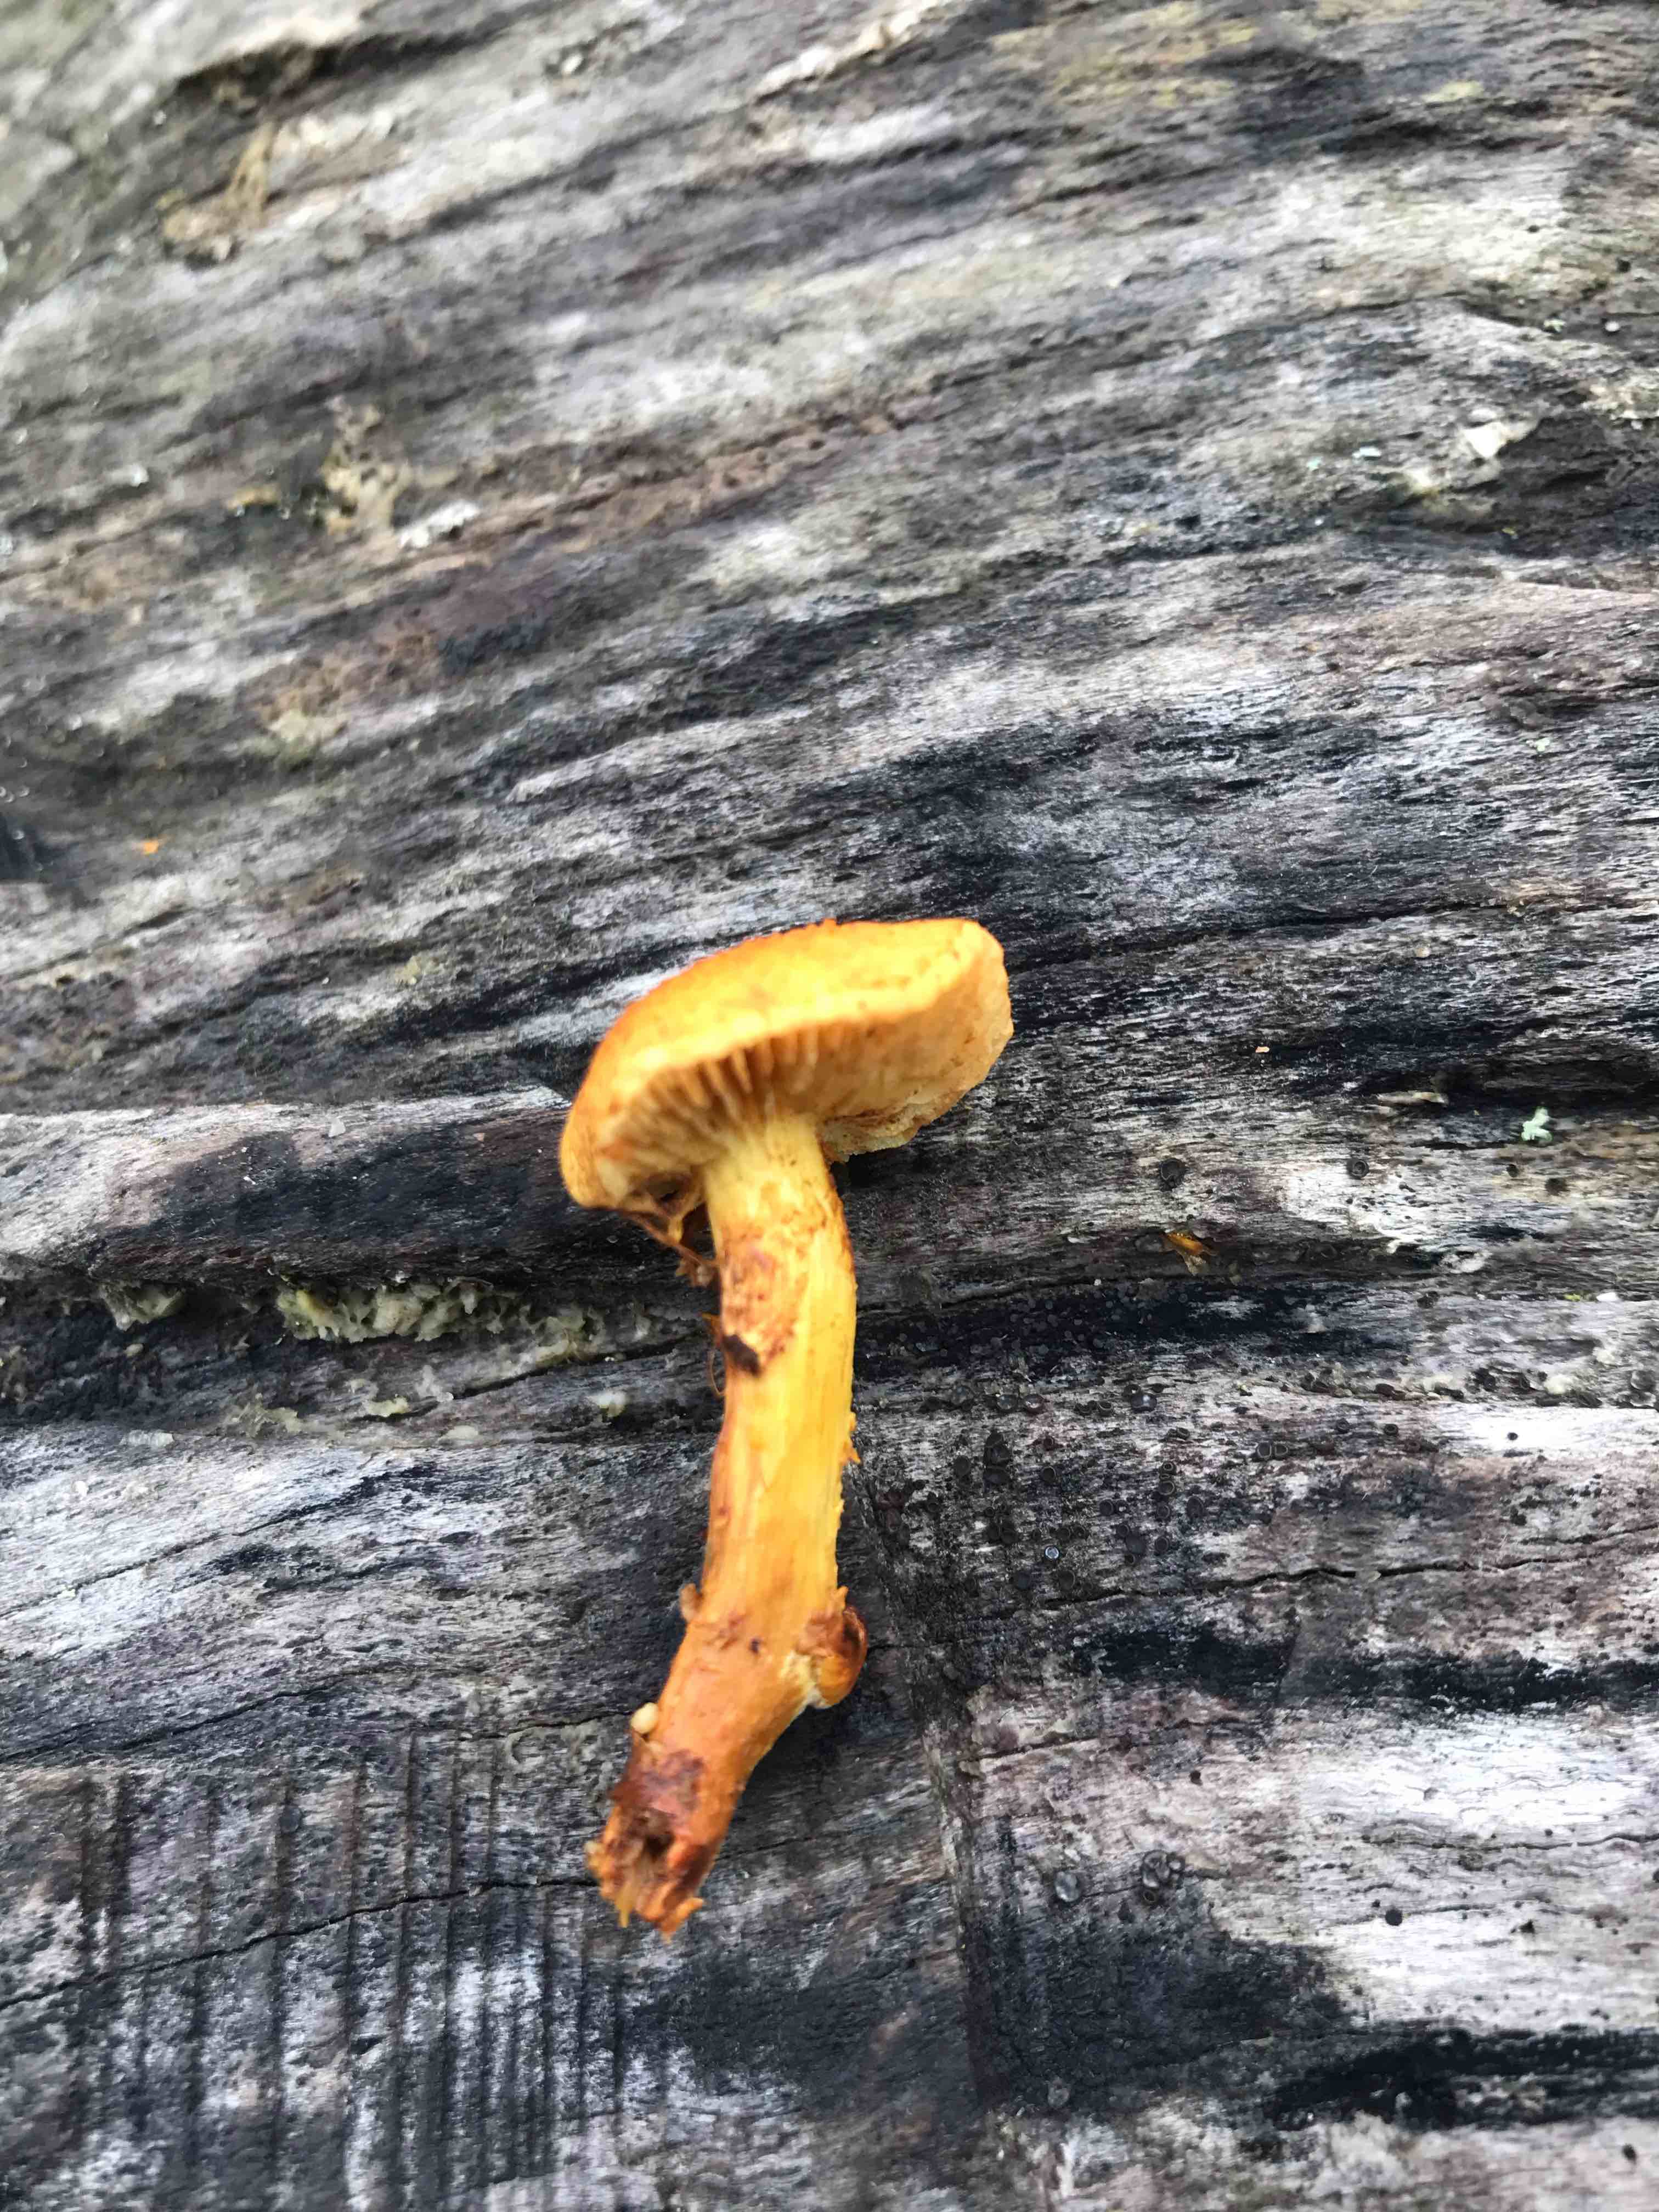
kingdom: Fungi
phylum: Basidiomycota
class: Agaricomycetes
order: Agaricales
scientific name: Agaricales
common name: champignonordenen
